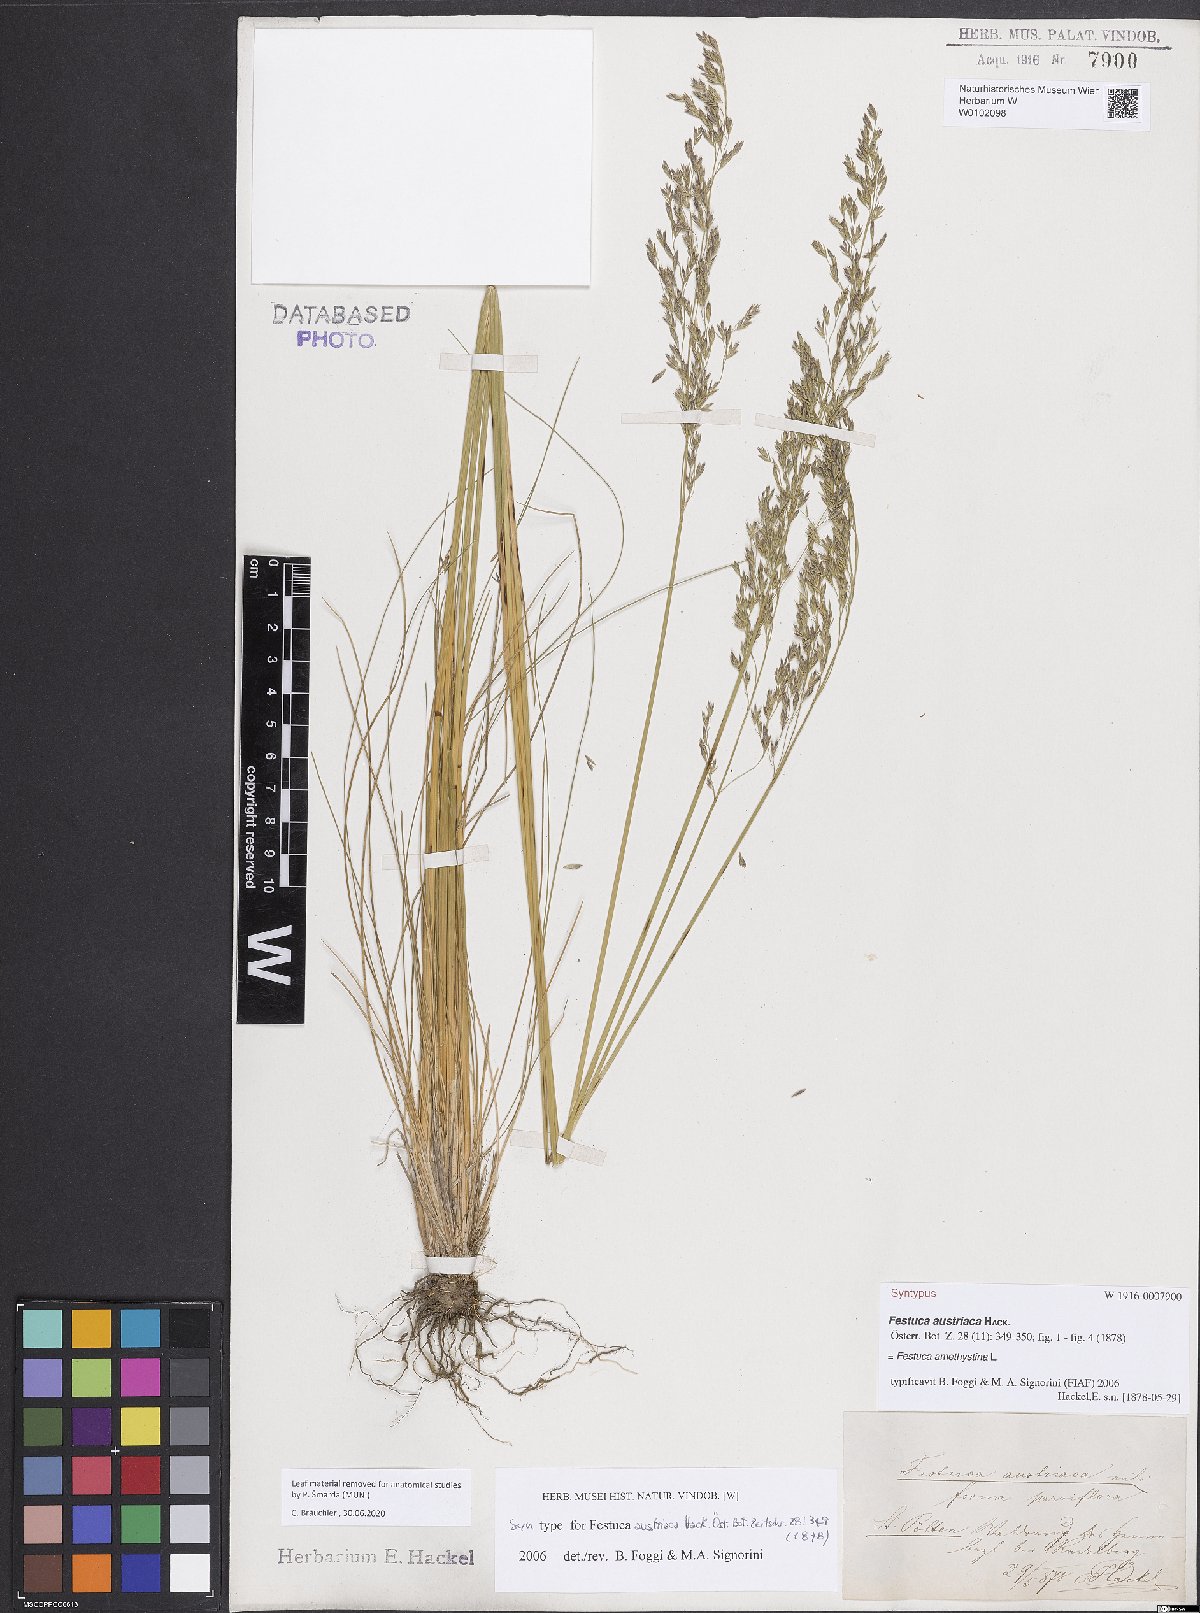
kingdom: Plantae
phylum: Tracheophyta
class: Liliopsida
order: Poales
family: Poaceae
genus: Festuca
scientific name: Festuca amethystina
